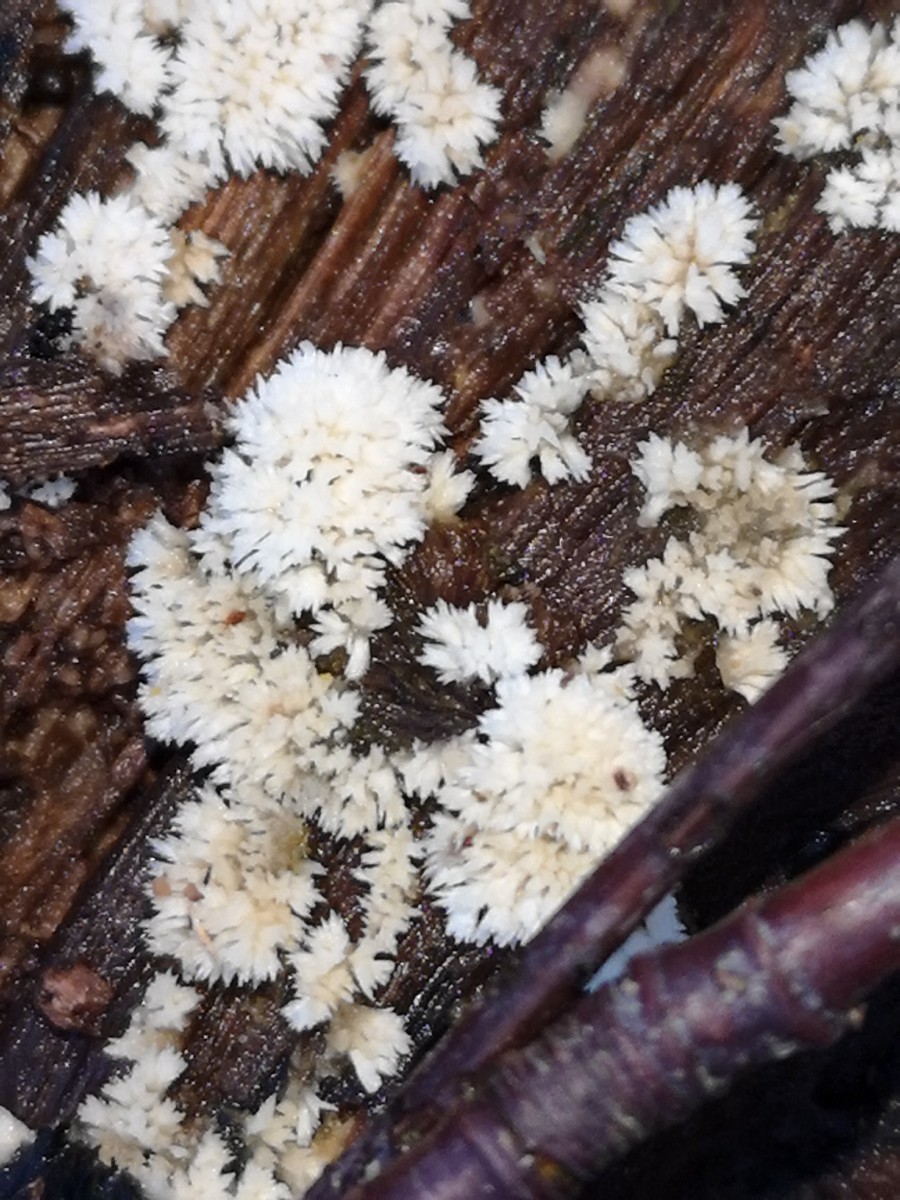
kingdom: Fungi
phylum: Basidiomycota
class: Agaricomycetes
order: Corticiales
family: Corticiaceae
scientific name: Corticiaceae
